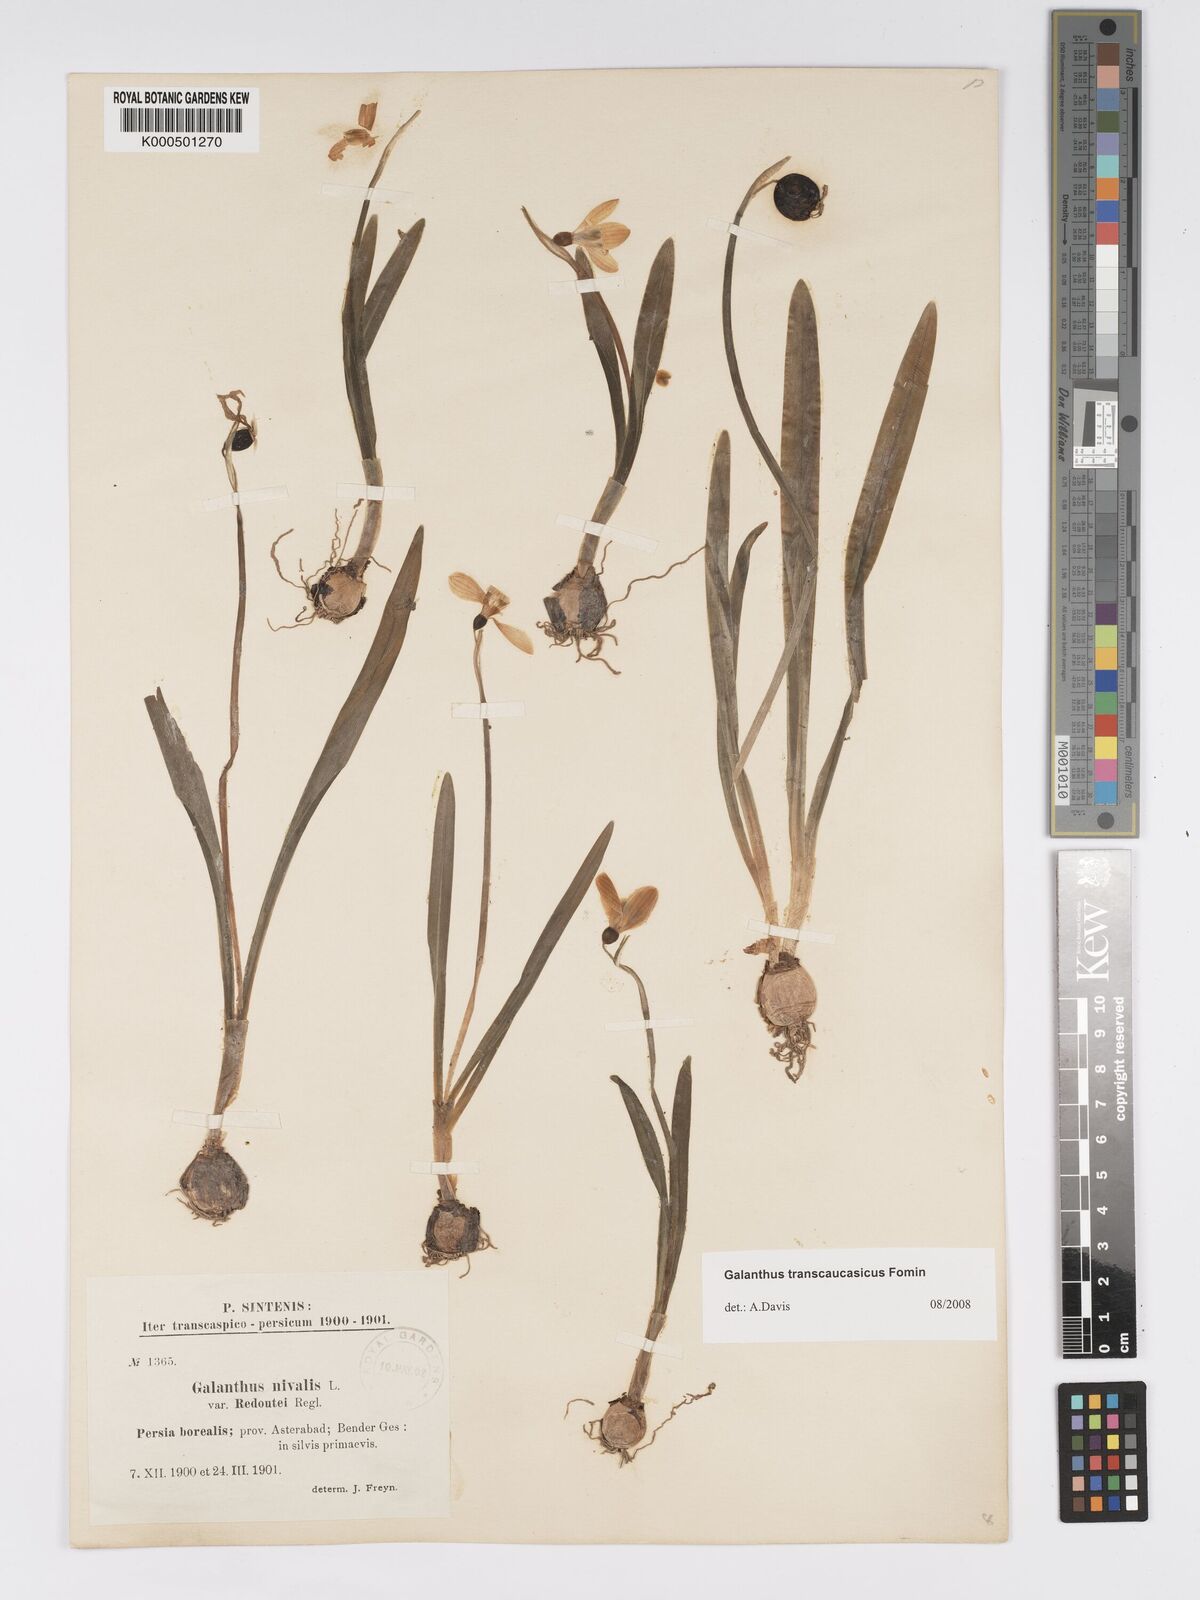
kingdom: Plantae
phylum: Tracheophyta
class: Liliopsida
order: Asparagales
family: Amaryllidaceae
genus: Galanthus
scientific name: Galanthus transcaucasicus
